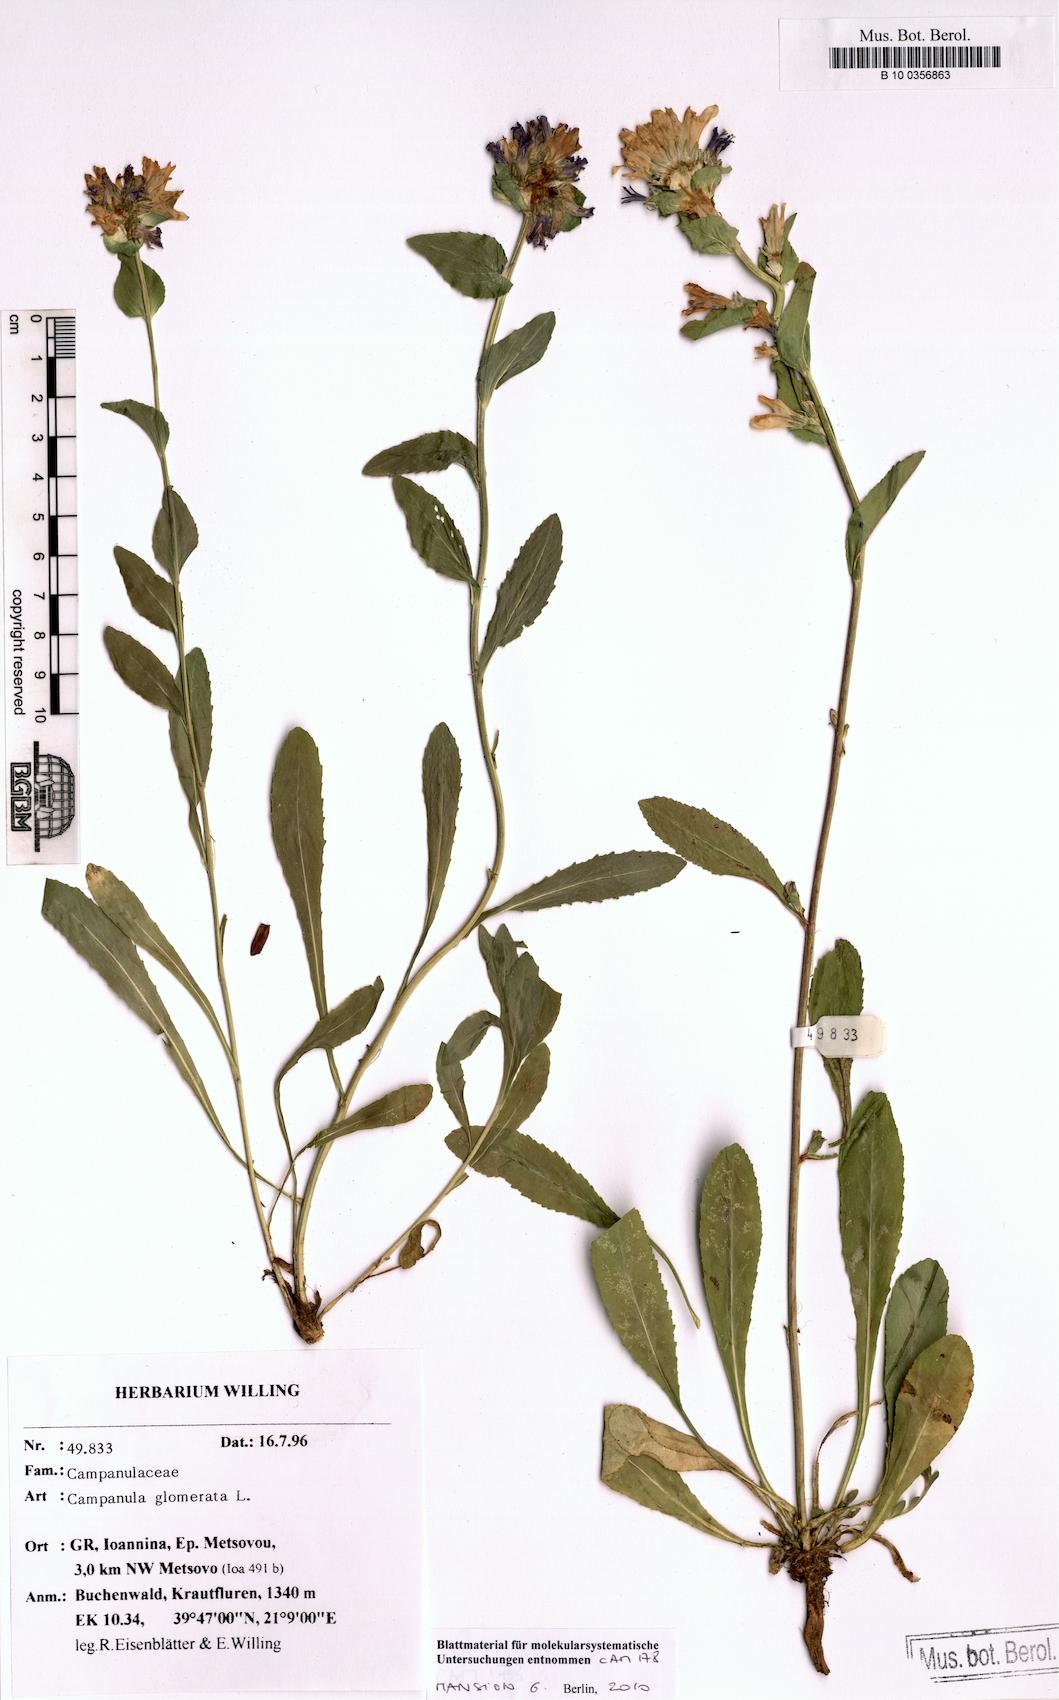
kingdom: Plantae
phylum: Tracheophyta
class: Magnoliopsida
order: Asterales
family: Campanulaceae
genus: Campanula
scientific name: Campanula glomerata
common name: Clustered bellflower
